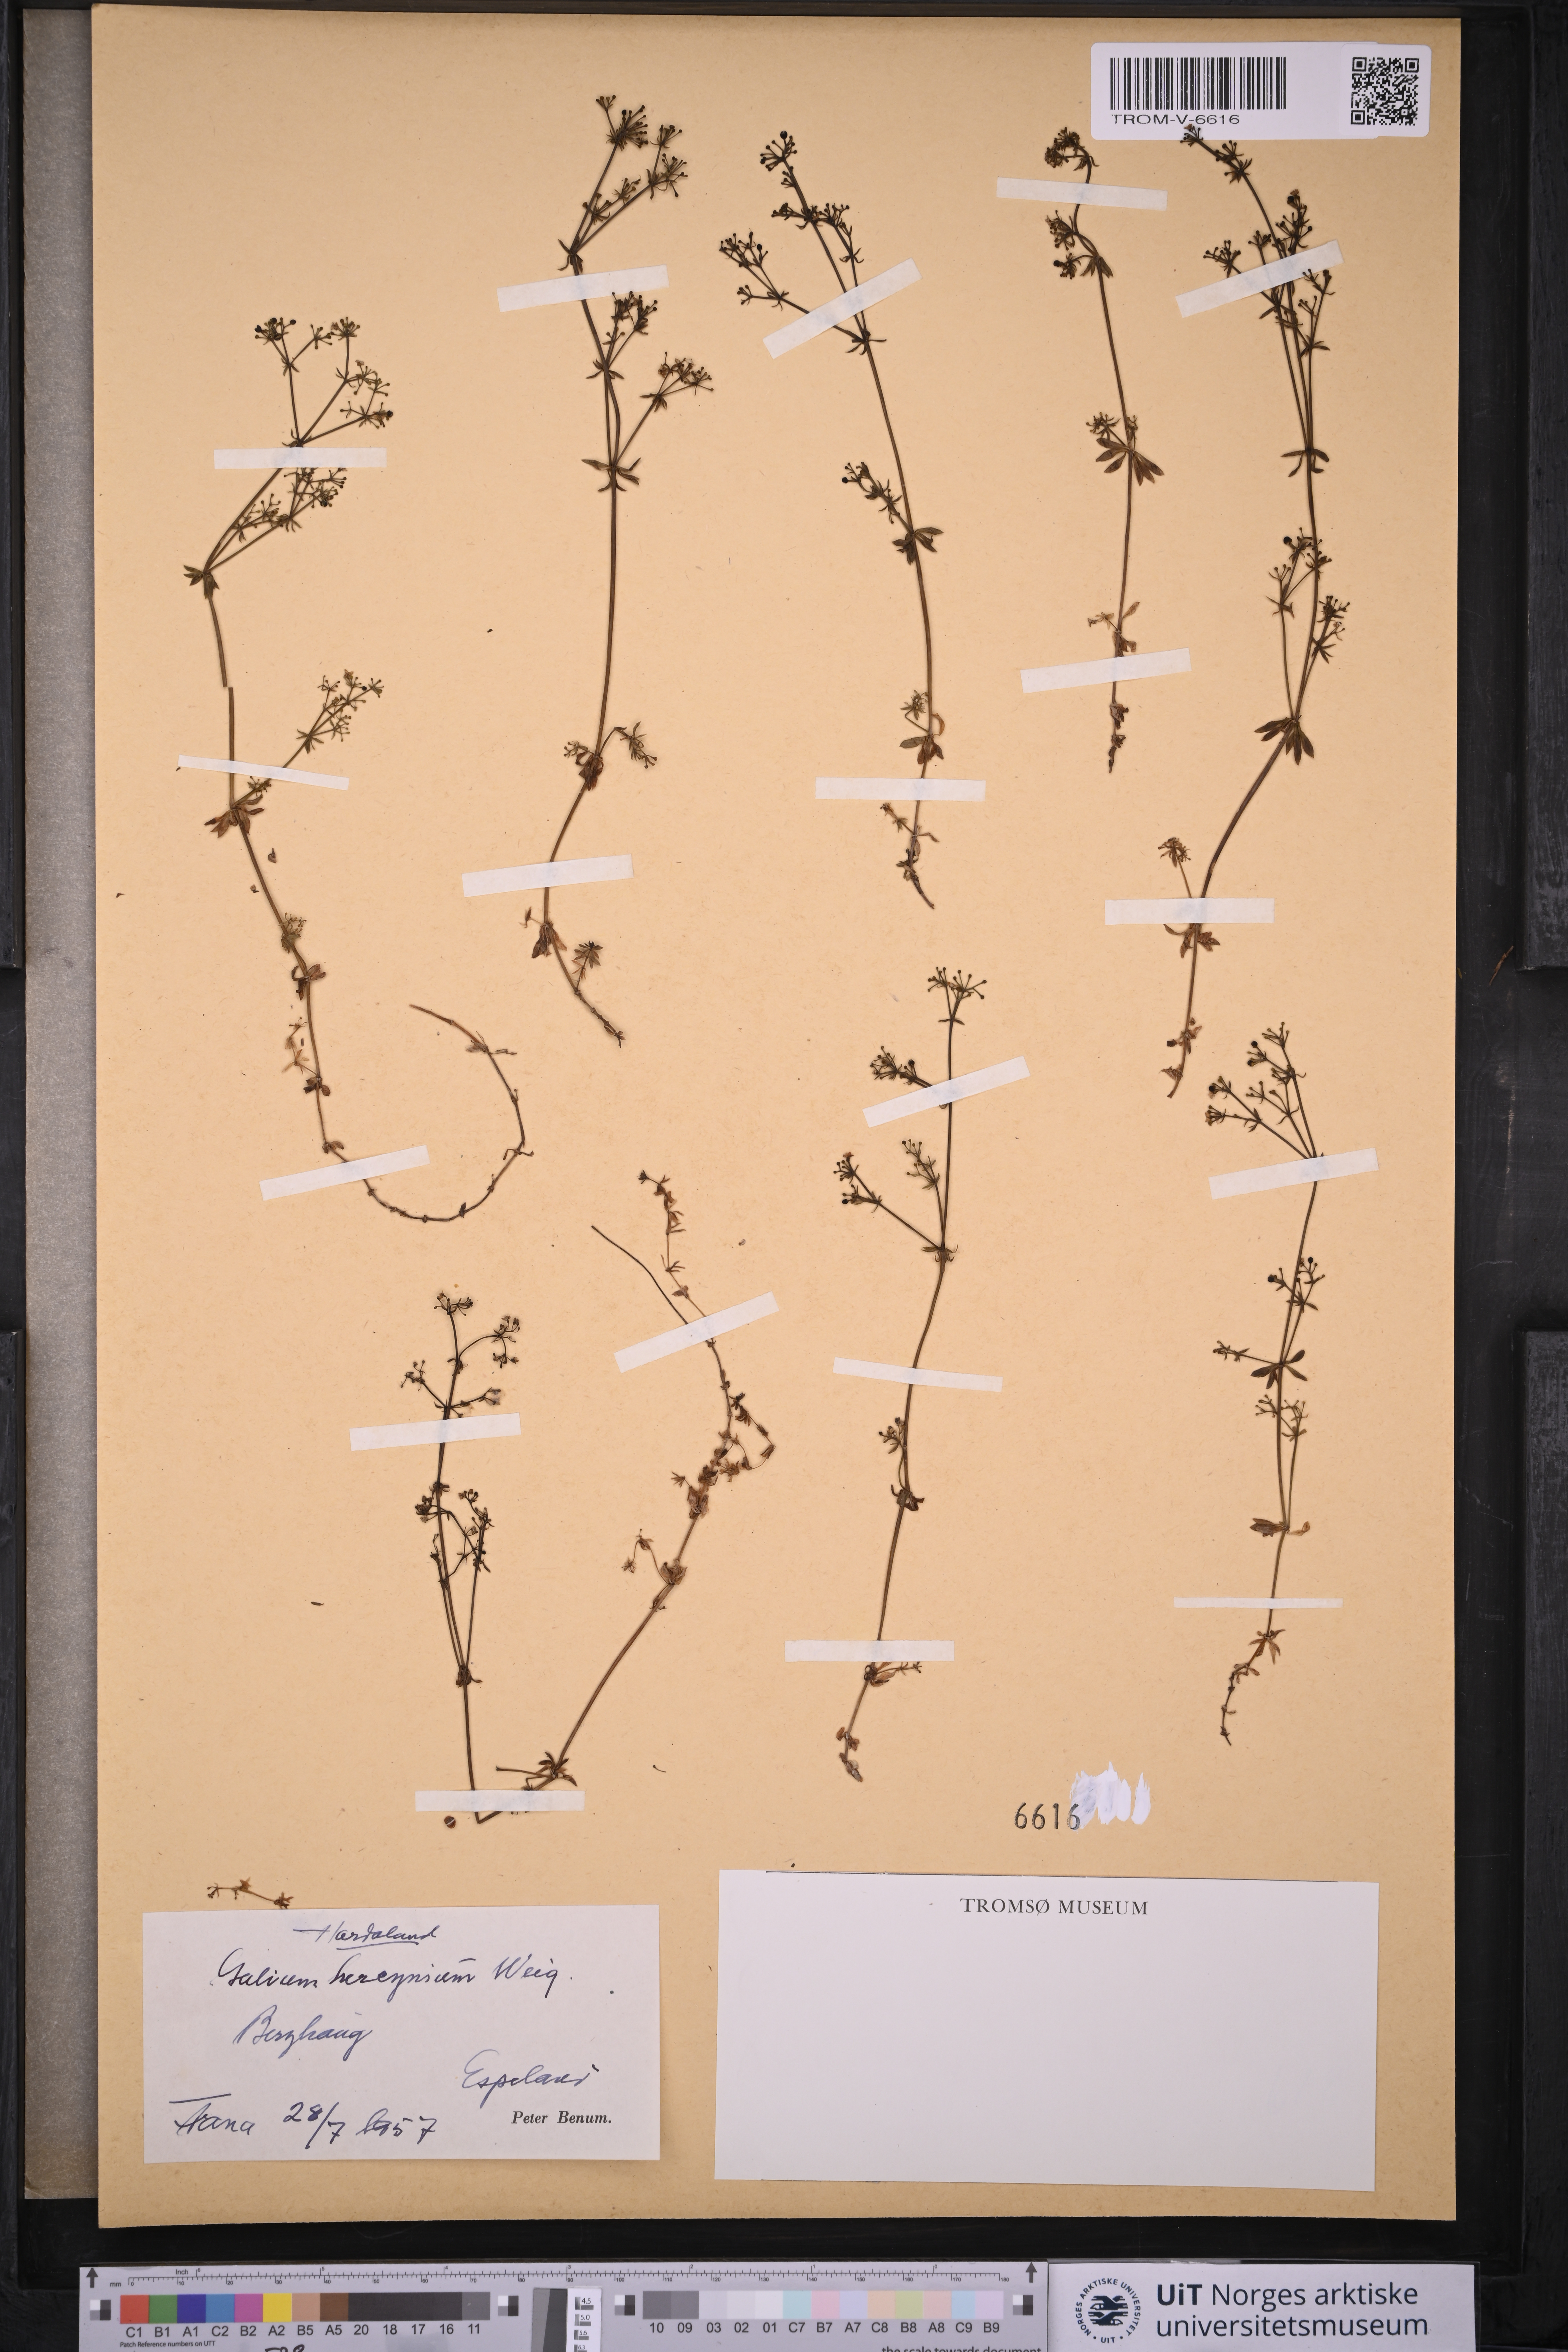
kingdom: Plantae
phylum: Tracheophyta
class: Magnoliopsida
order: Gentianales
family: Rubiaceae
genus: Galium
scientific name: Galium saxatile
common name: Heath bedstraw
